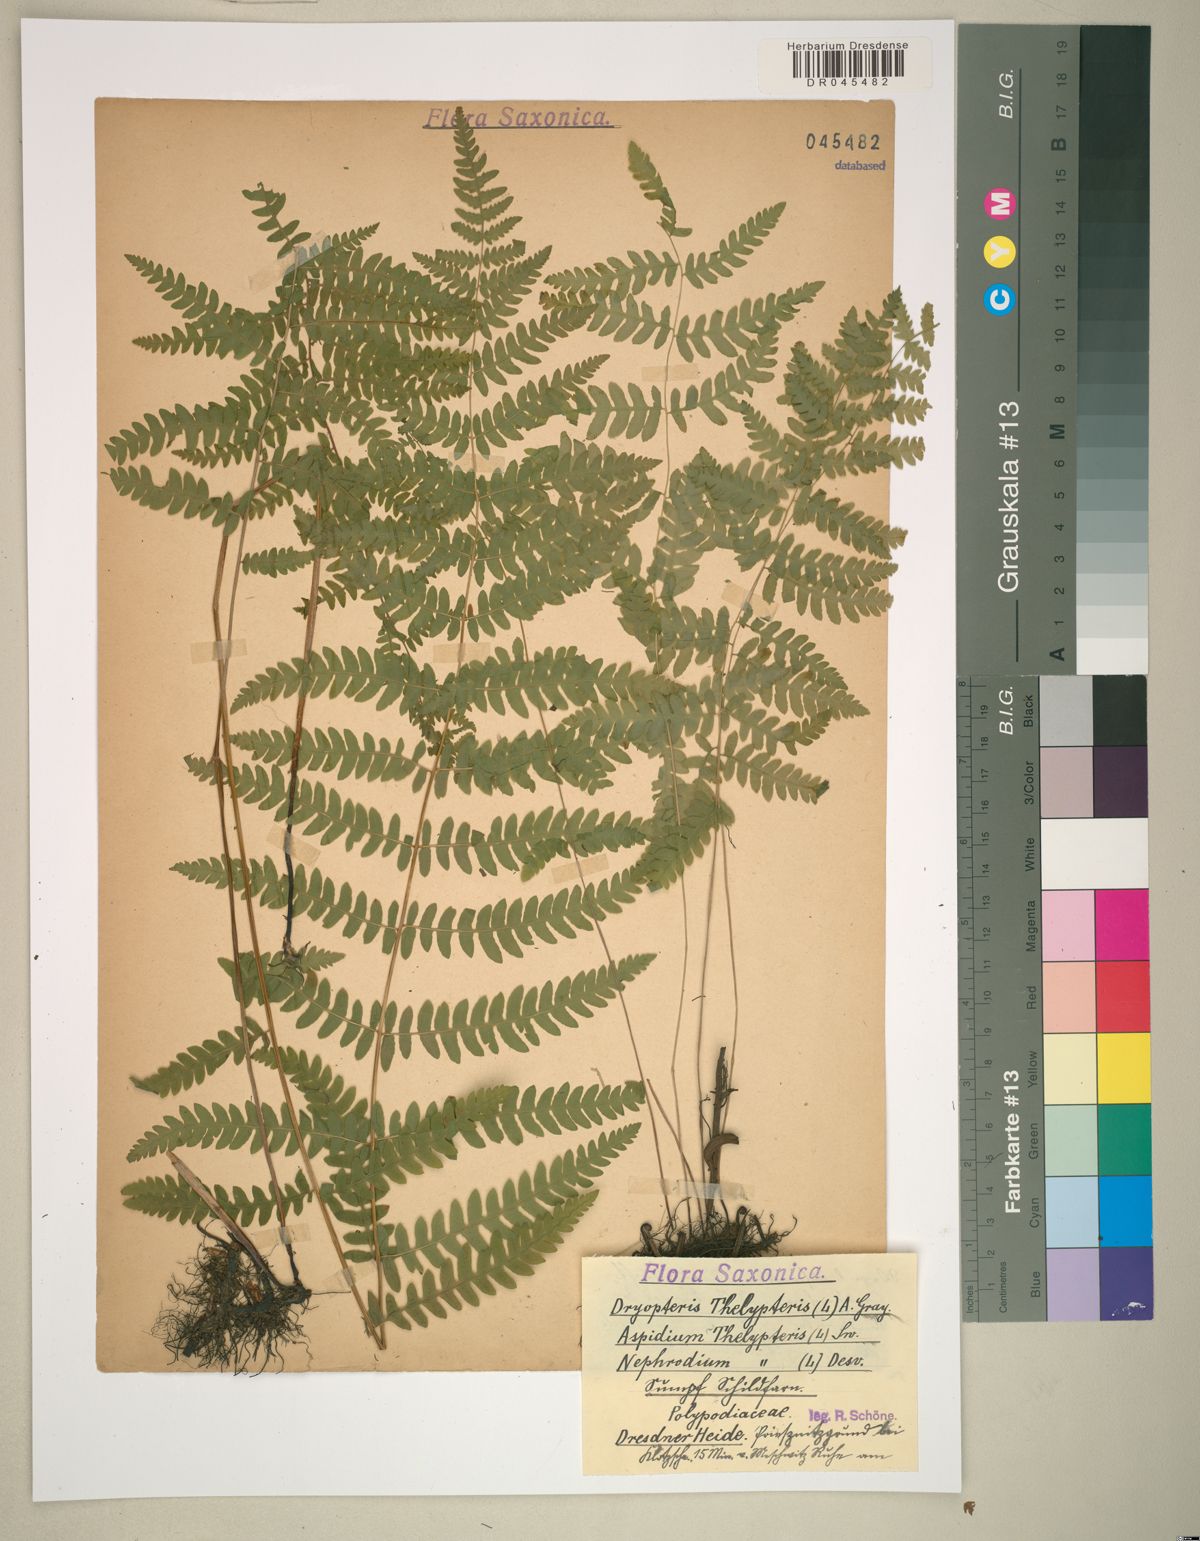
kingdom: Plantae
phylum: Tracheophyta
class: Polypodiopsida
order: Polypodiales
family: Thelypteridaceae
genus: Thelypteris
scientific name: Thelypteris palustris
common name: Marsh fern
